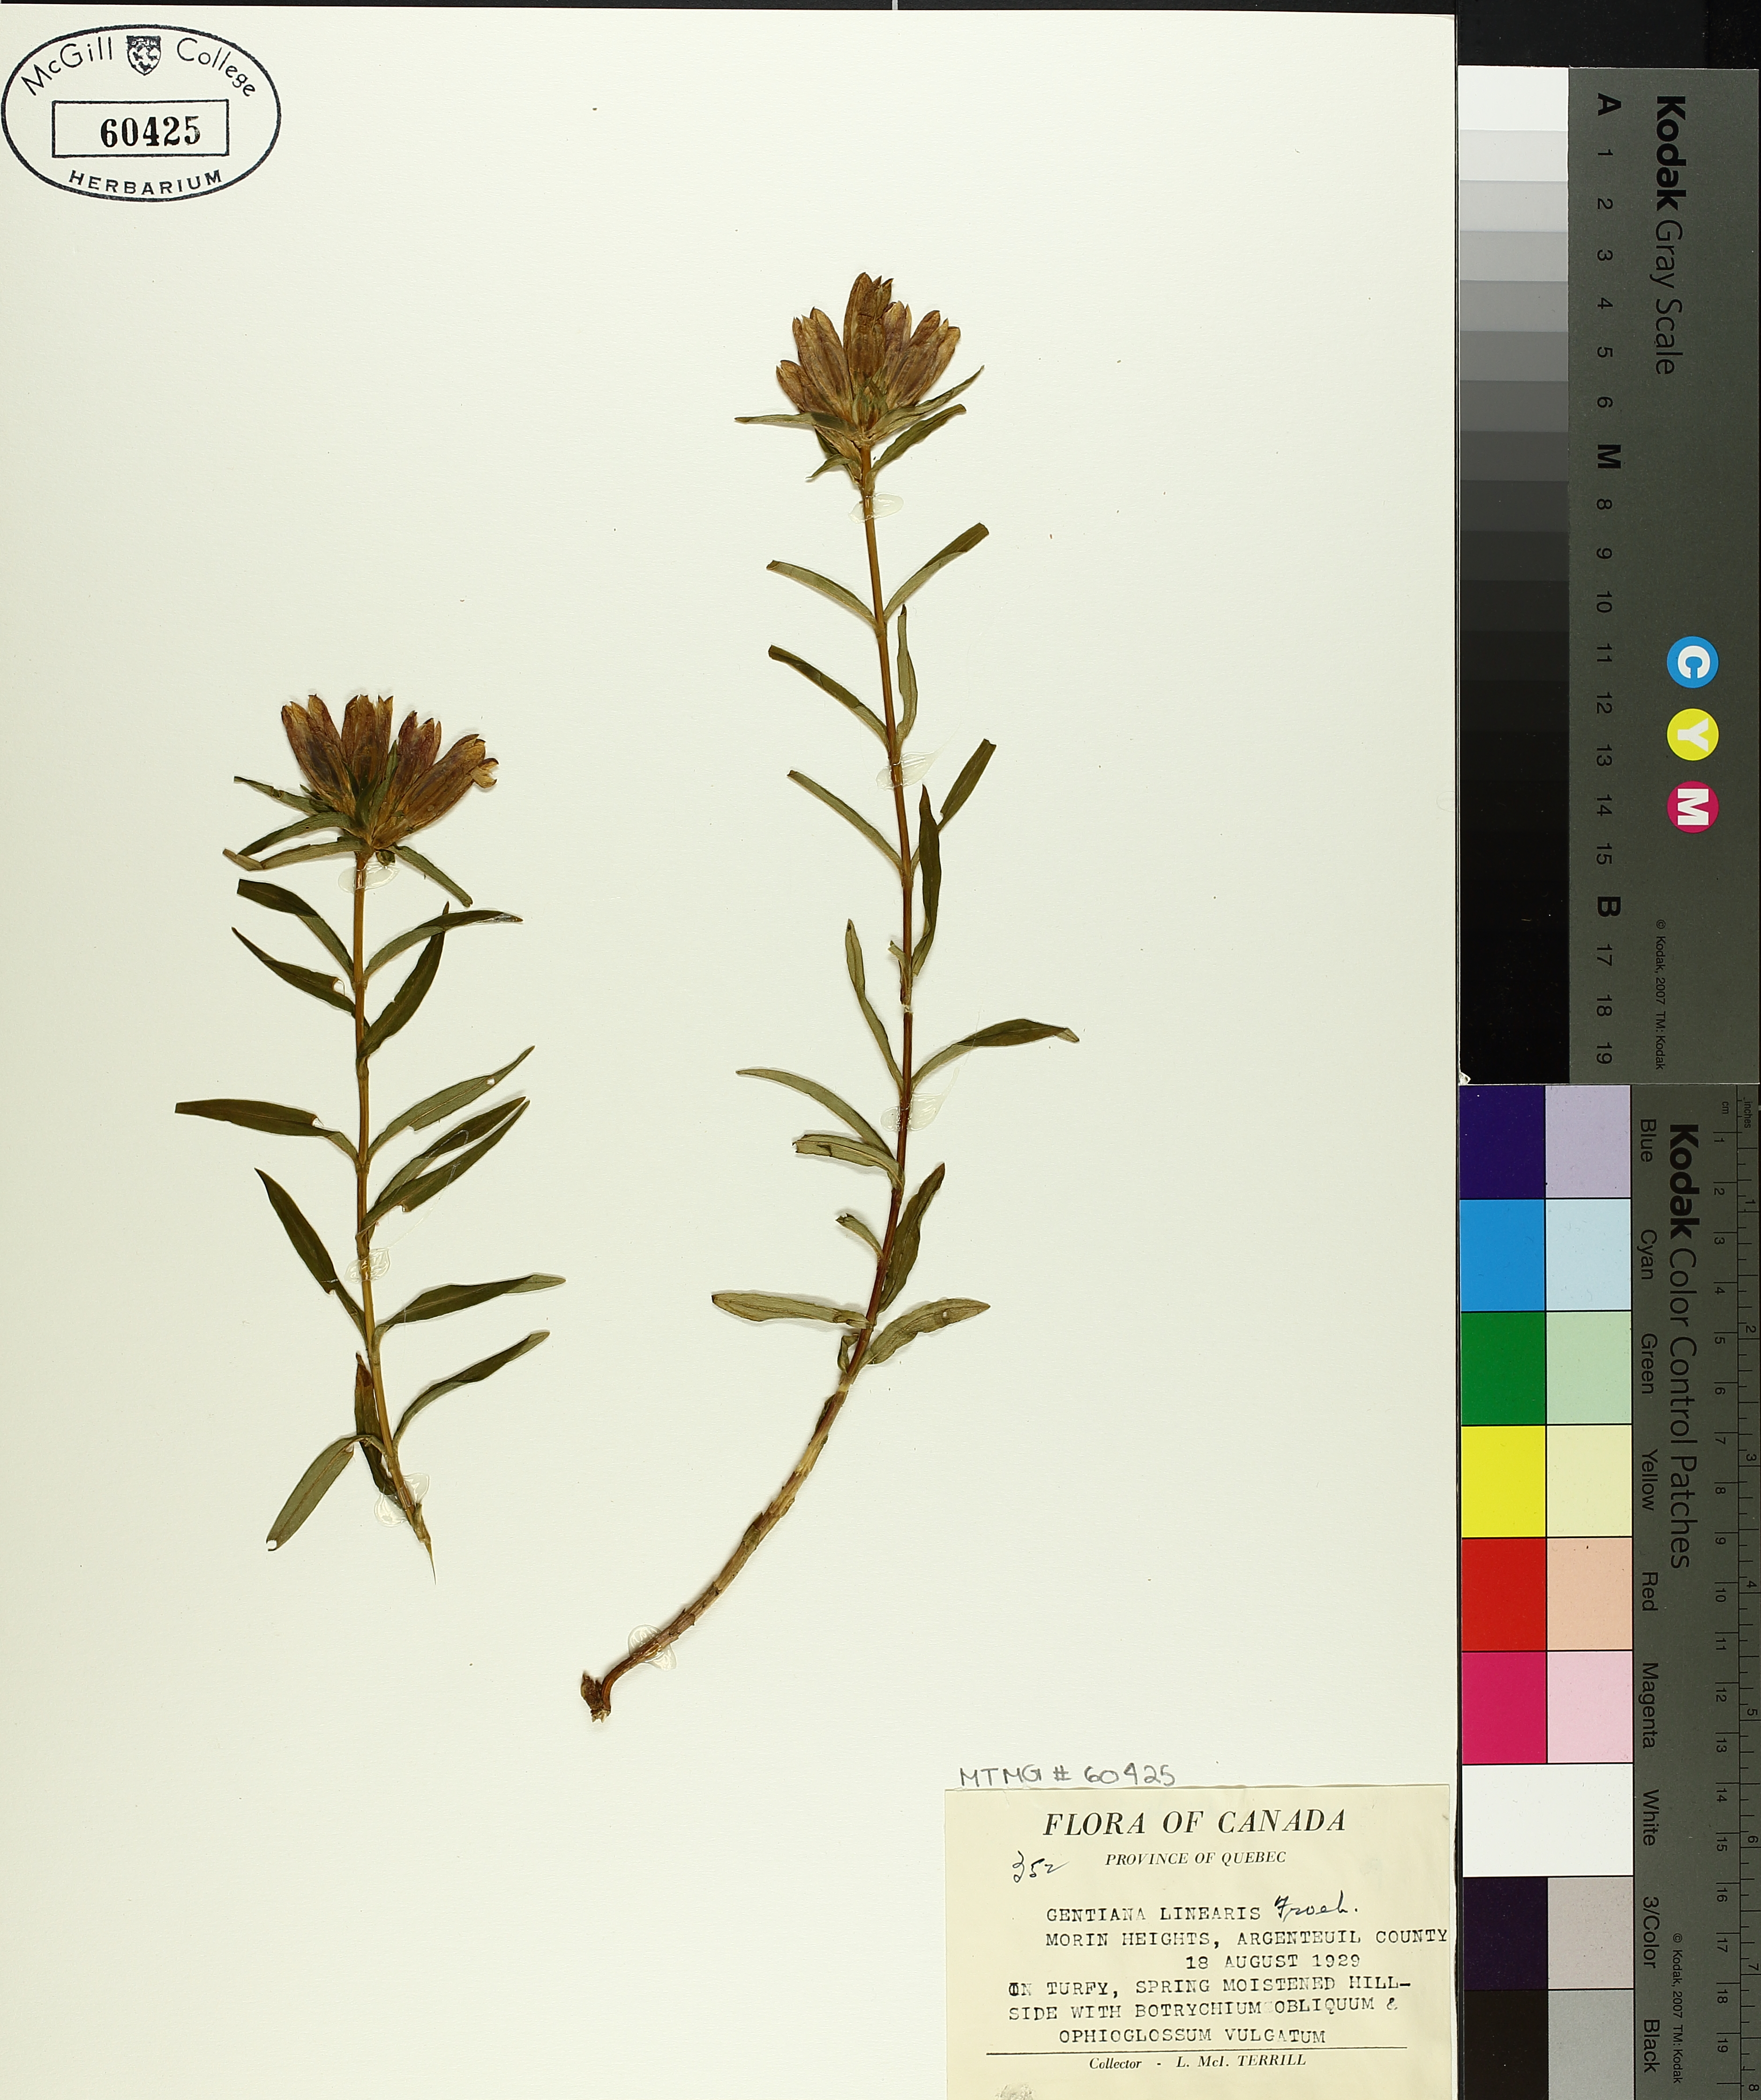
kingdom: Plantae
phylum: Tracheophyta
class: Magnoliopsida
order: Gentianales
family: Gentianaceae
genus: Gentiana
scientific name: Gentiana linearis
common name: Bastard gentian
